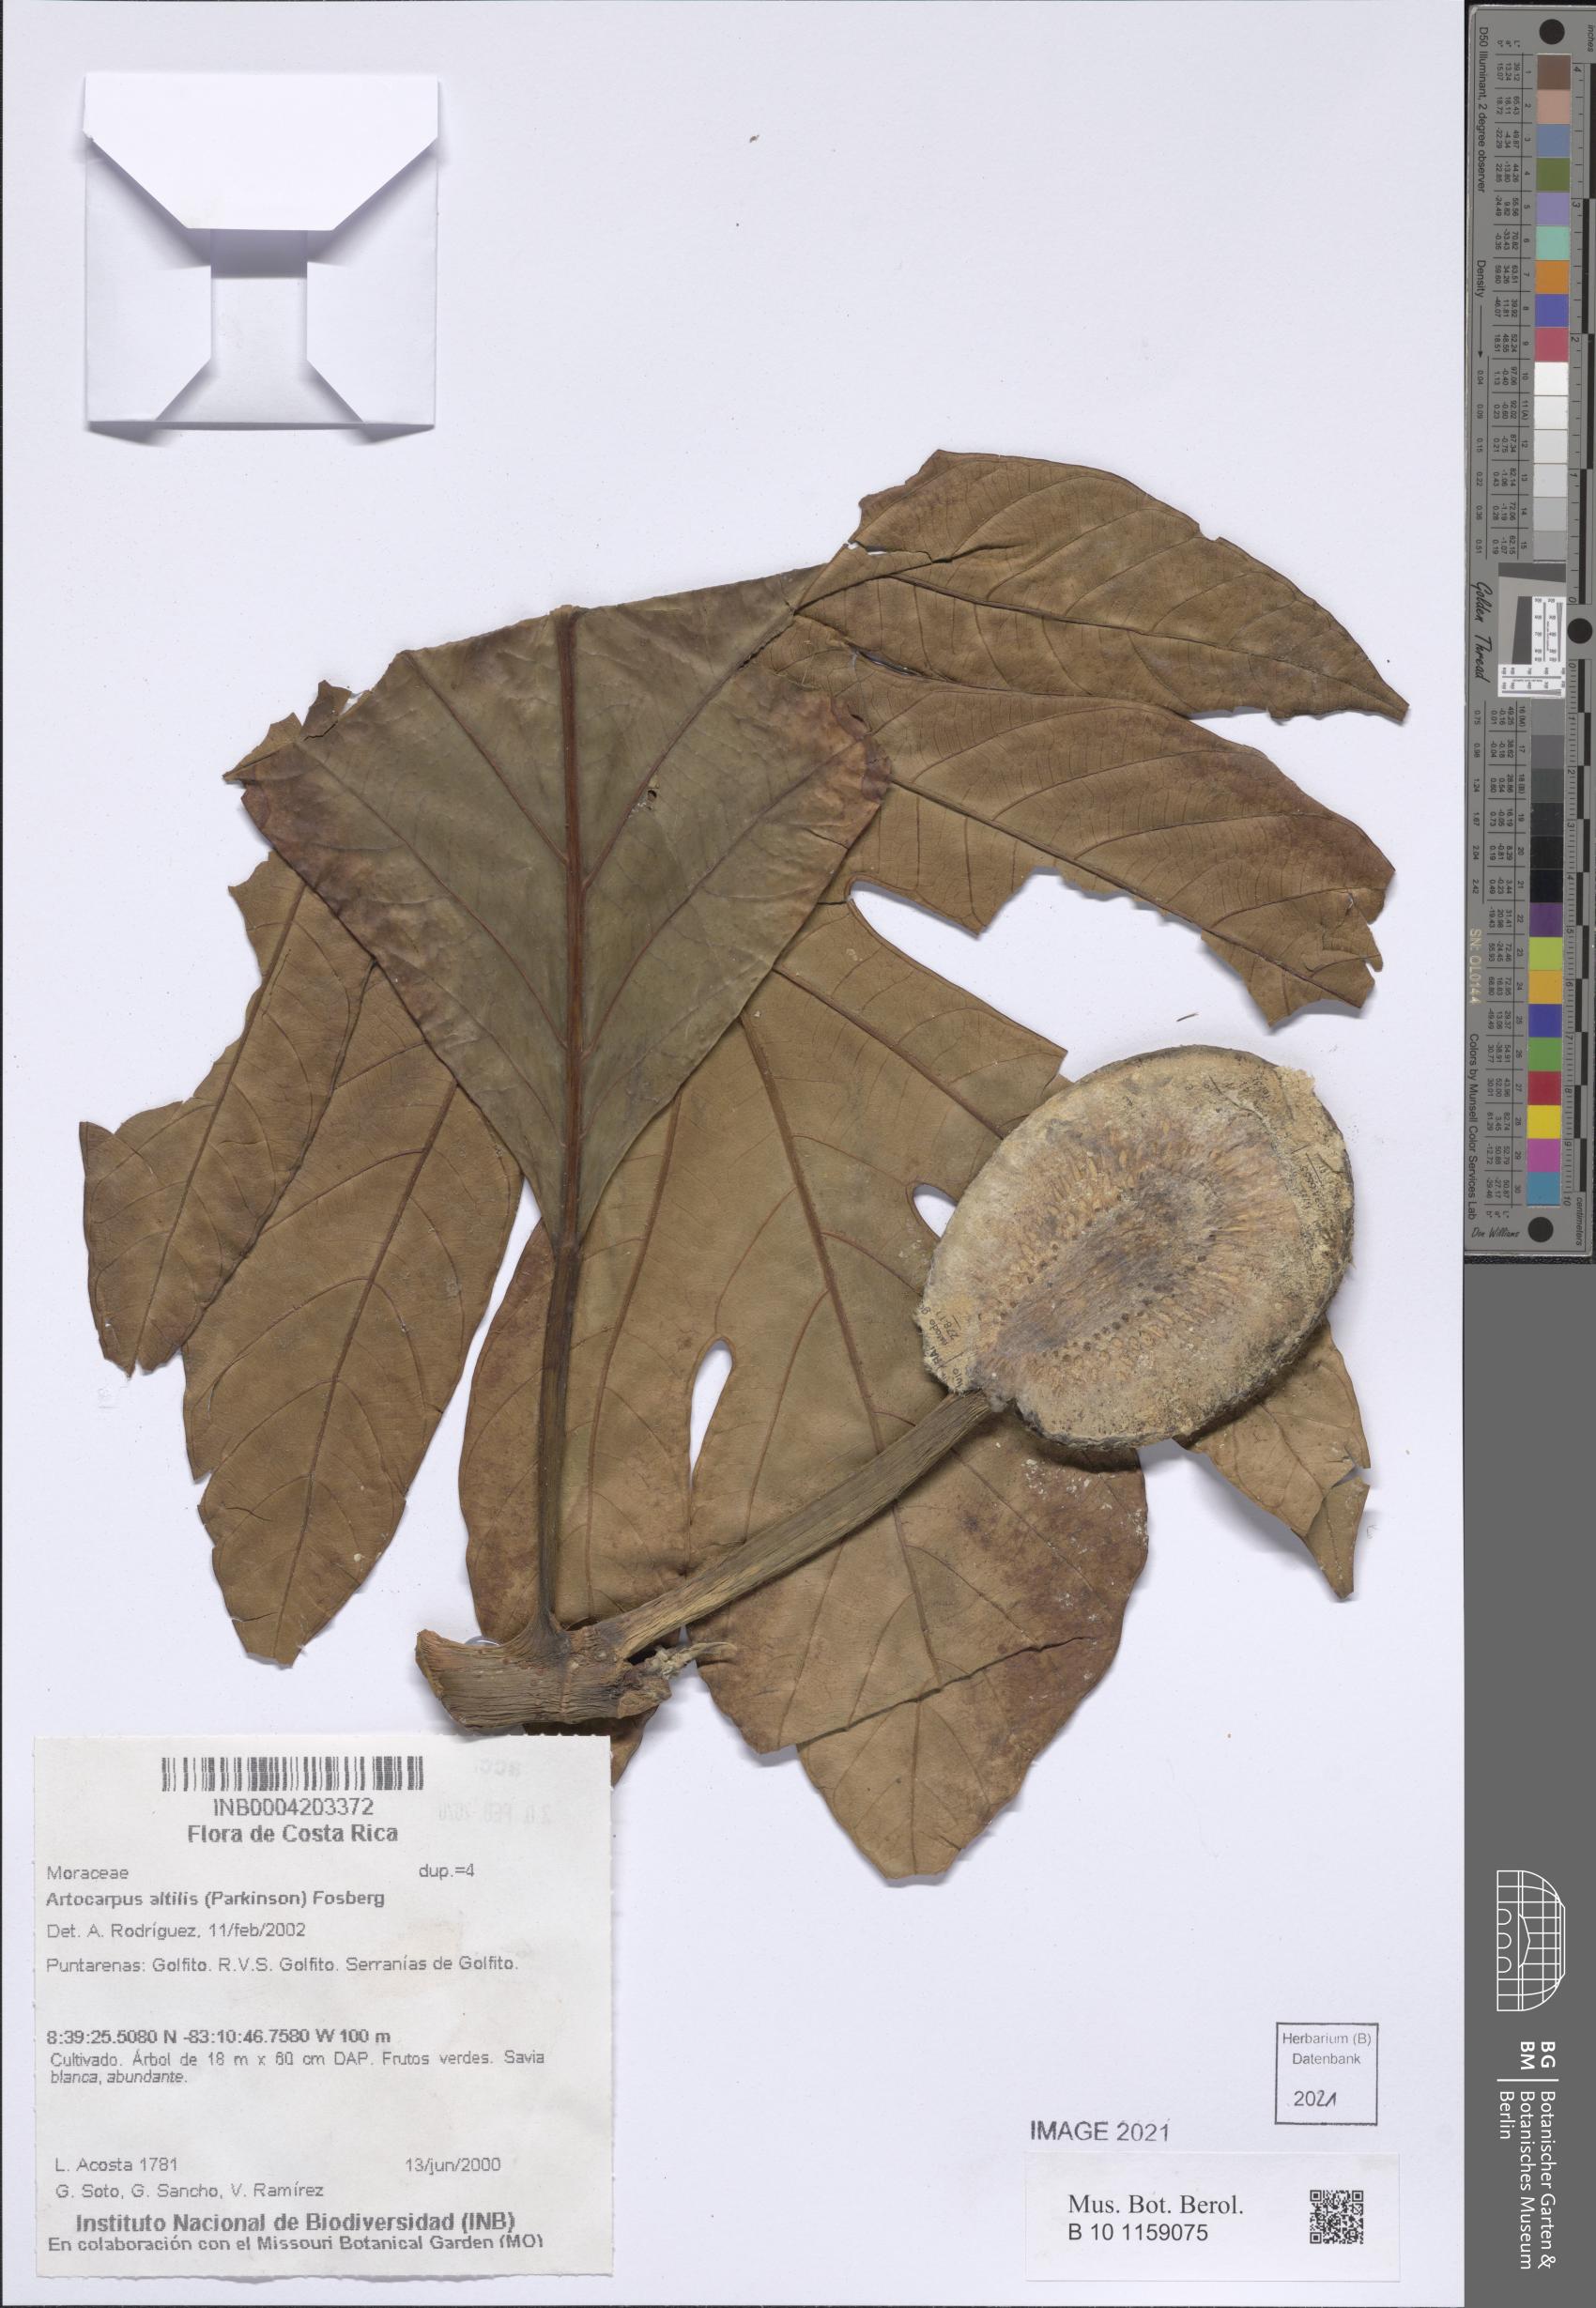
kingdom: Plantae
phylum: Tracheophyta
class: Magnoliopsida
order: Rosales
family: Moraceae
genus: Artocarpus
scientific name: Artocarpus altilis
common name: Breadfruit
